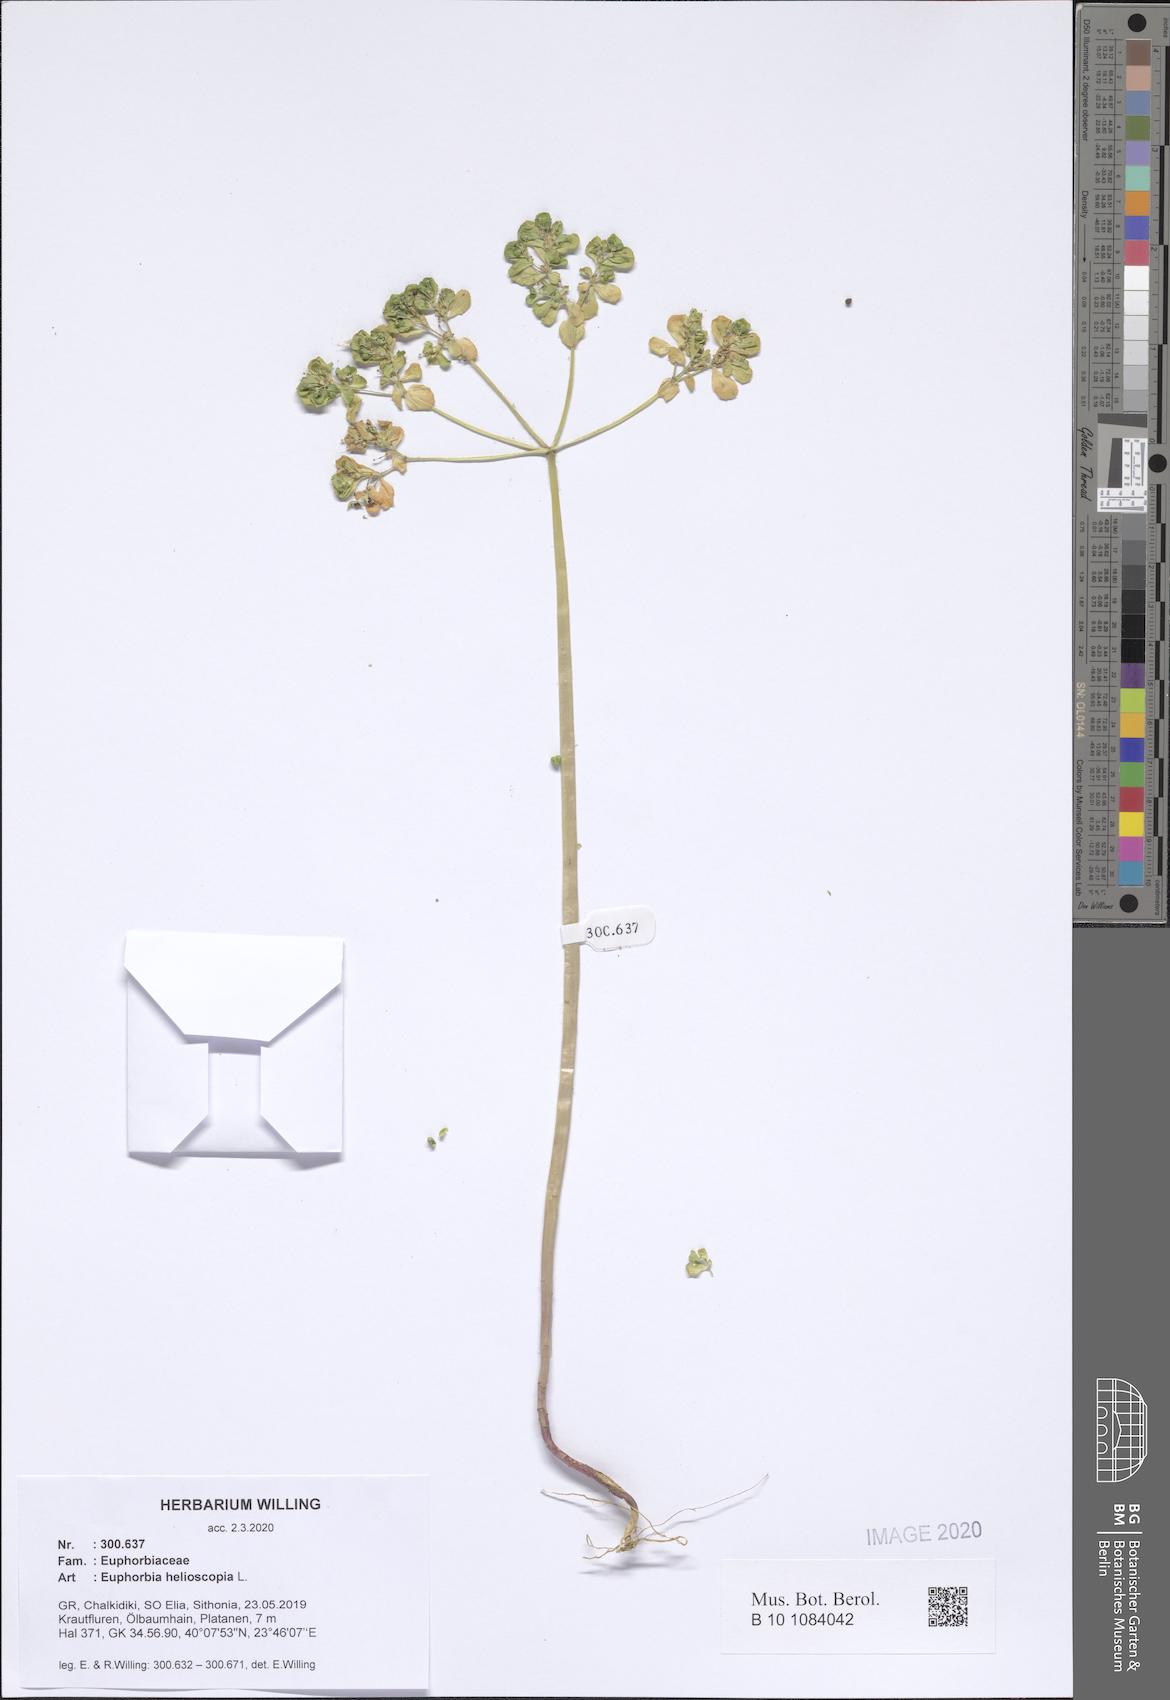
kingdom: Plantae
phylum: Tracheophyta
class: Magnoliopsida
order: Malpighiales
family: Euphorbiaceae
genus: Euphorbia
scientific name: Euphorbia helioscopia
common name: Sun spurge
